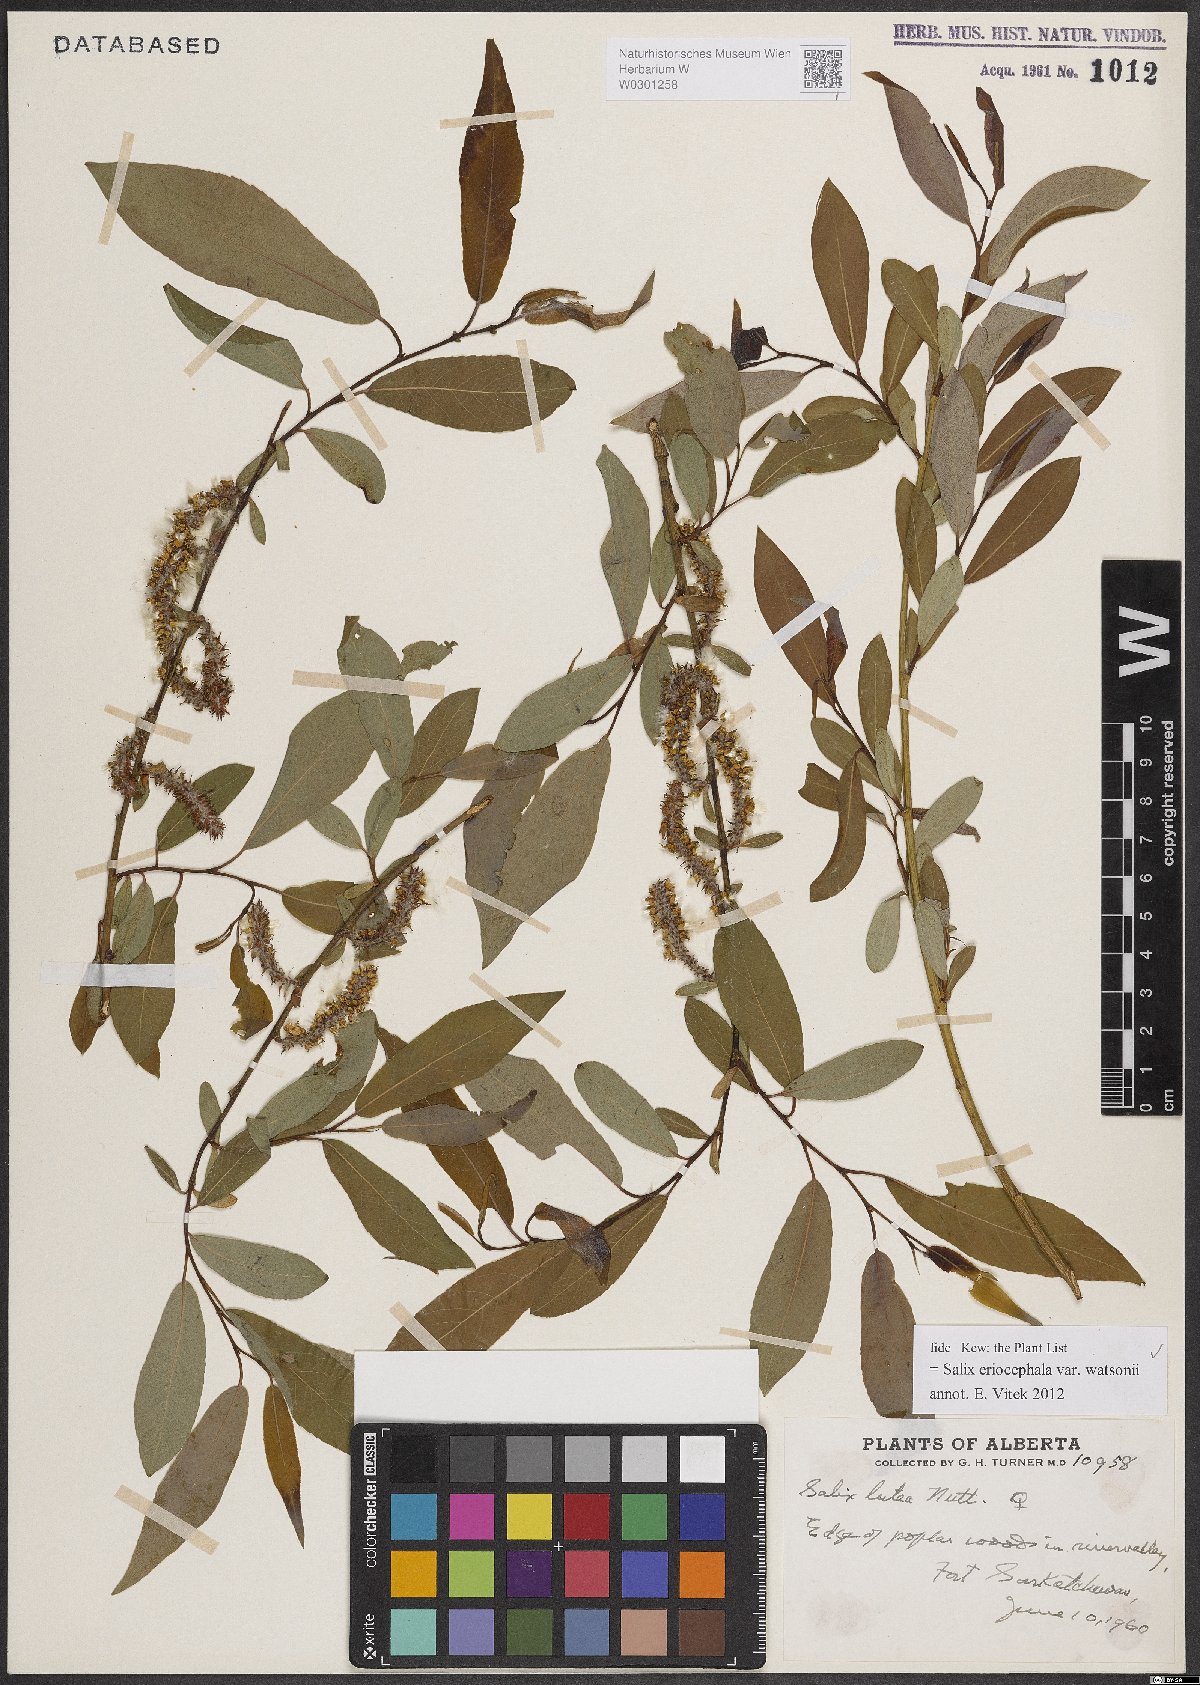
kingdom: Plantae
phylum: Tracheophyta
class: Magnoliopsida
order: Malpighiales
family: Salicaceae
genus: Salix
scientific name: Salix lutea
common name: Yellow willow
